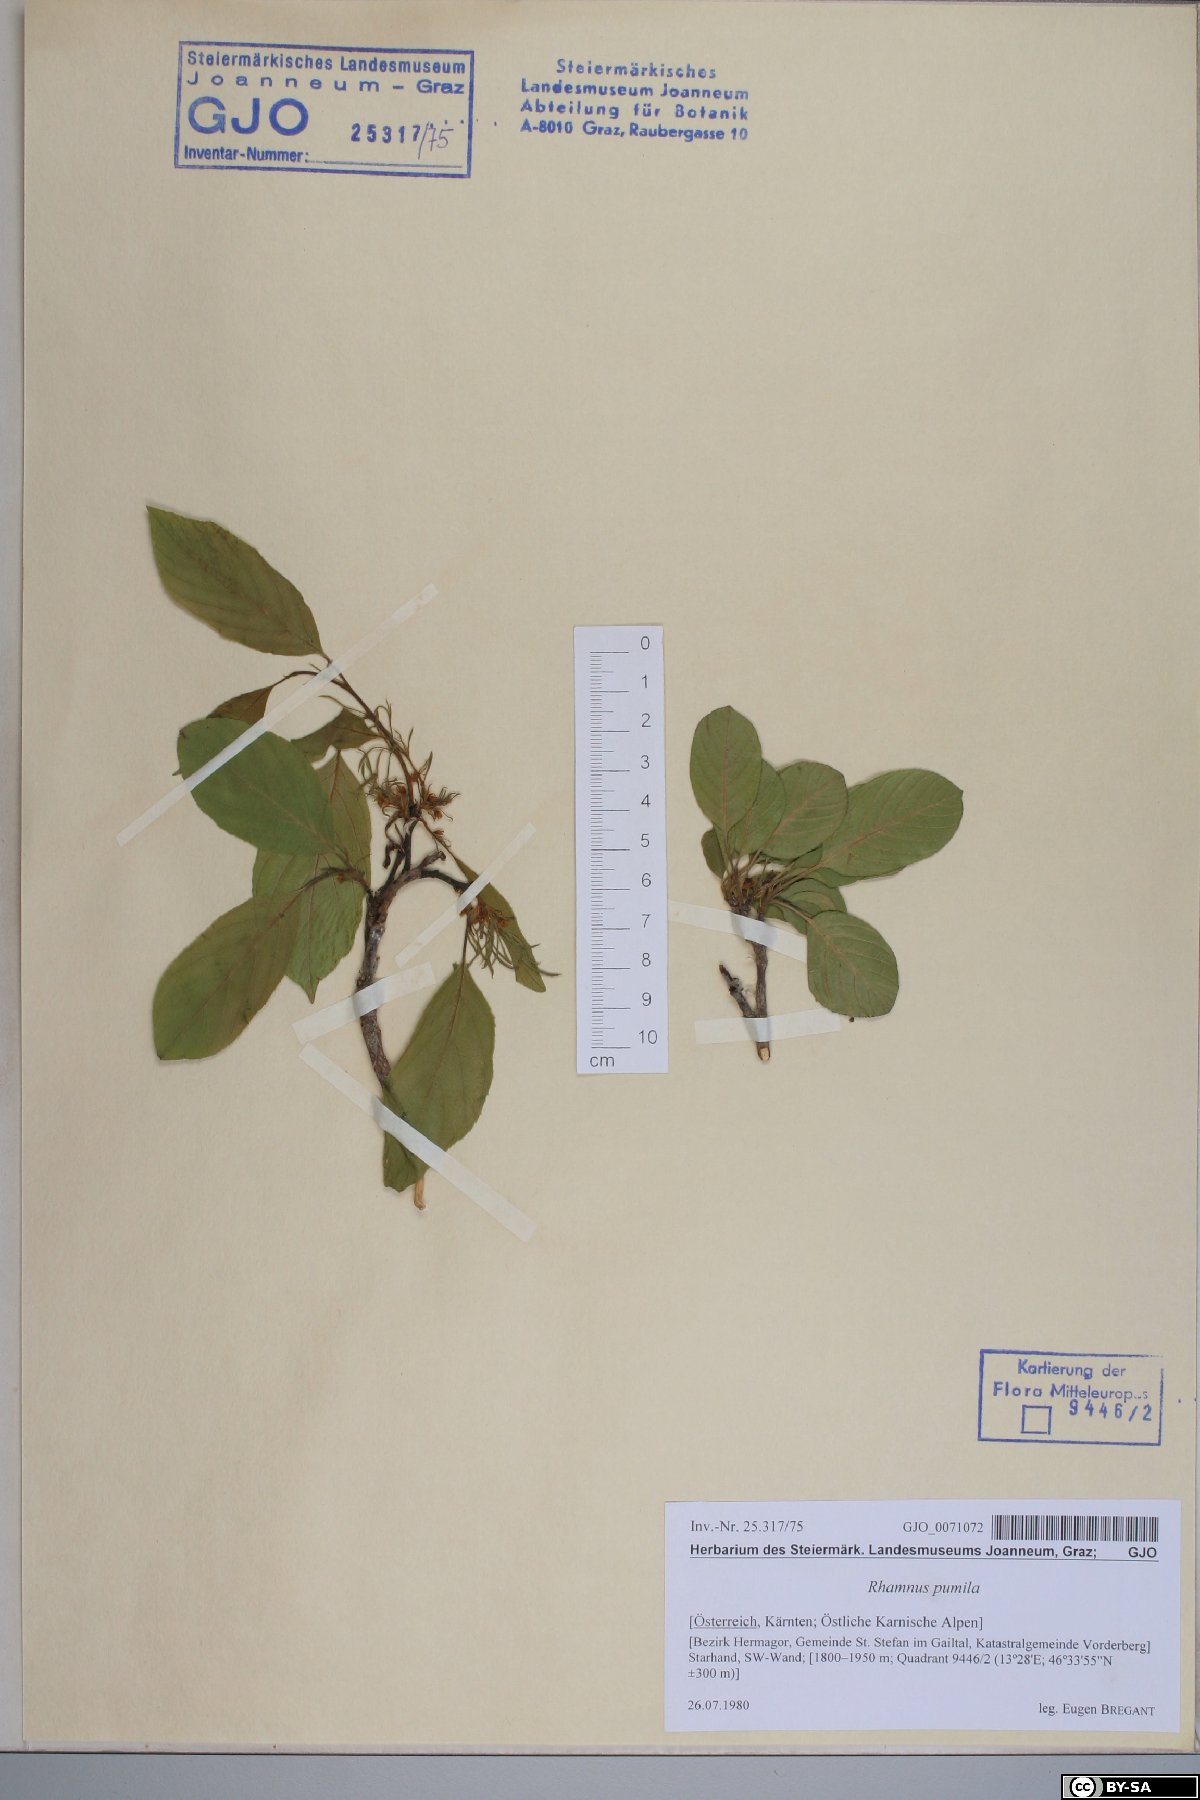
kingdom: Plantae
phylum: Tracheophyta
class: Magnoliopsida
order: Rosales
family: Rhamnaceae
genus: Atadinus
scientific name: Atadinus pumilus
